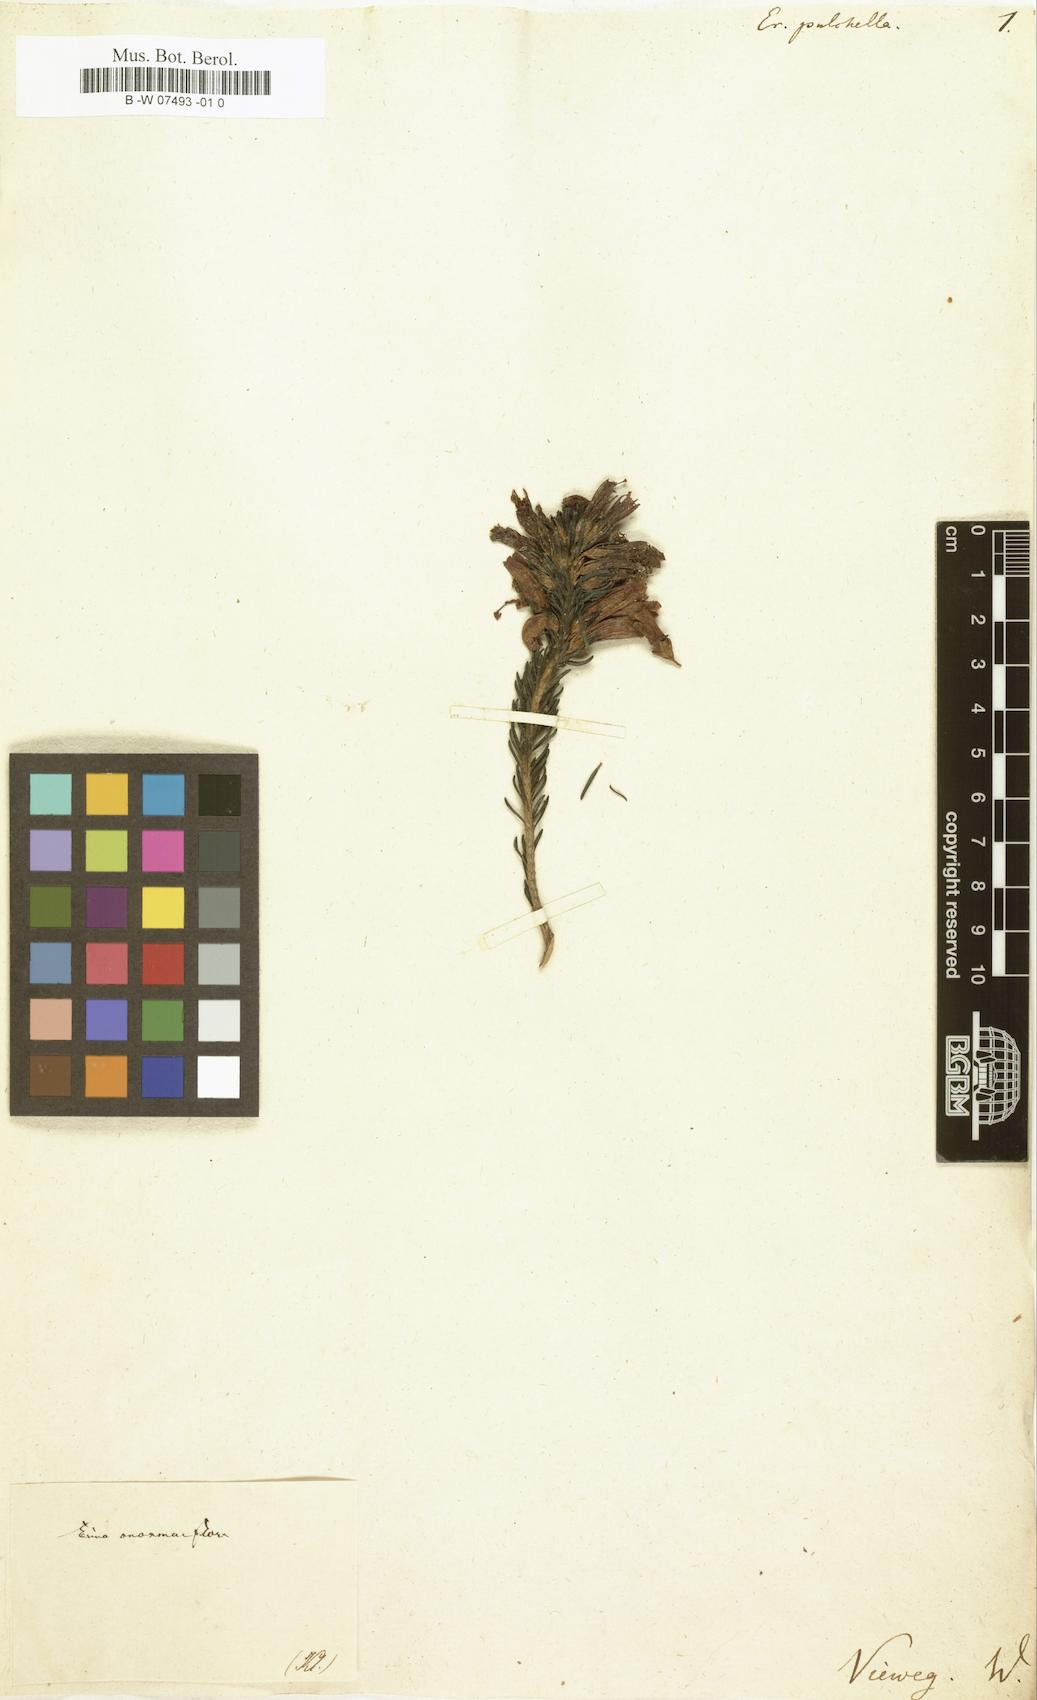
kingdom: Plantae
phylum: Tracheophyta
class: Magnoliopsida
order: Ericales
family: Ericaceae
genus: Erica
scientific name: Erica pulchella
